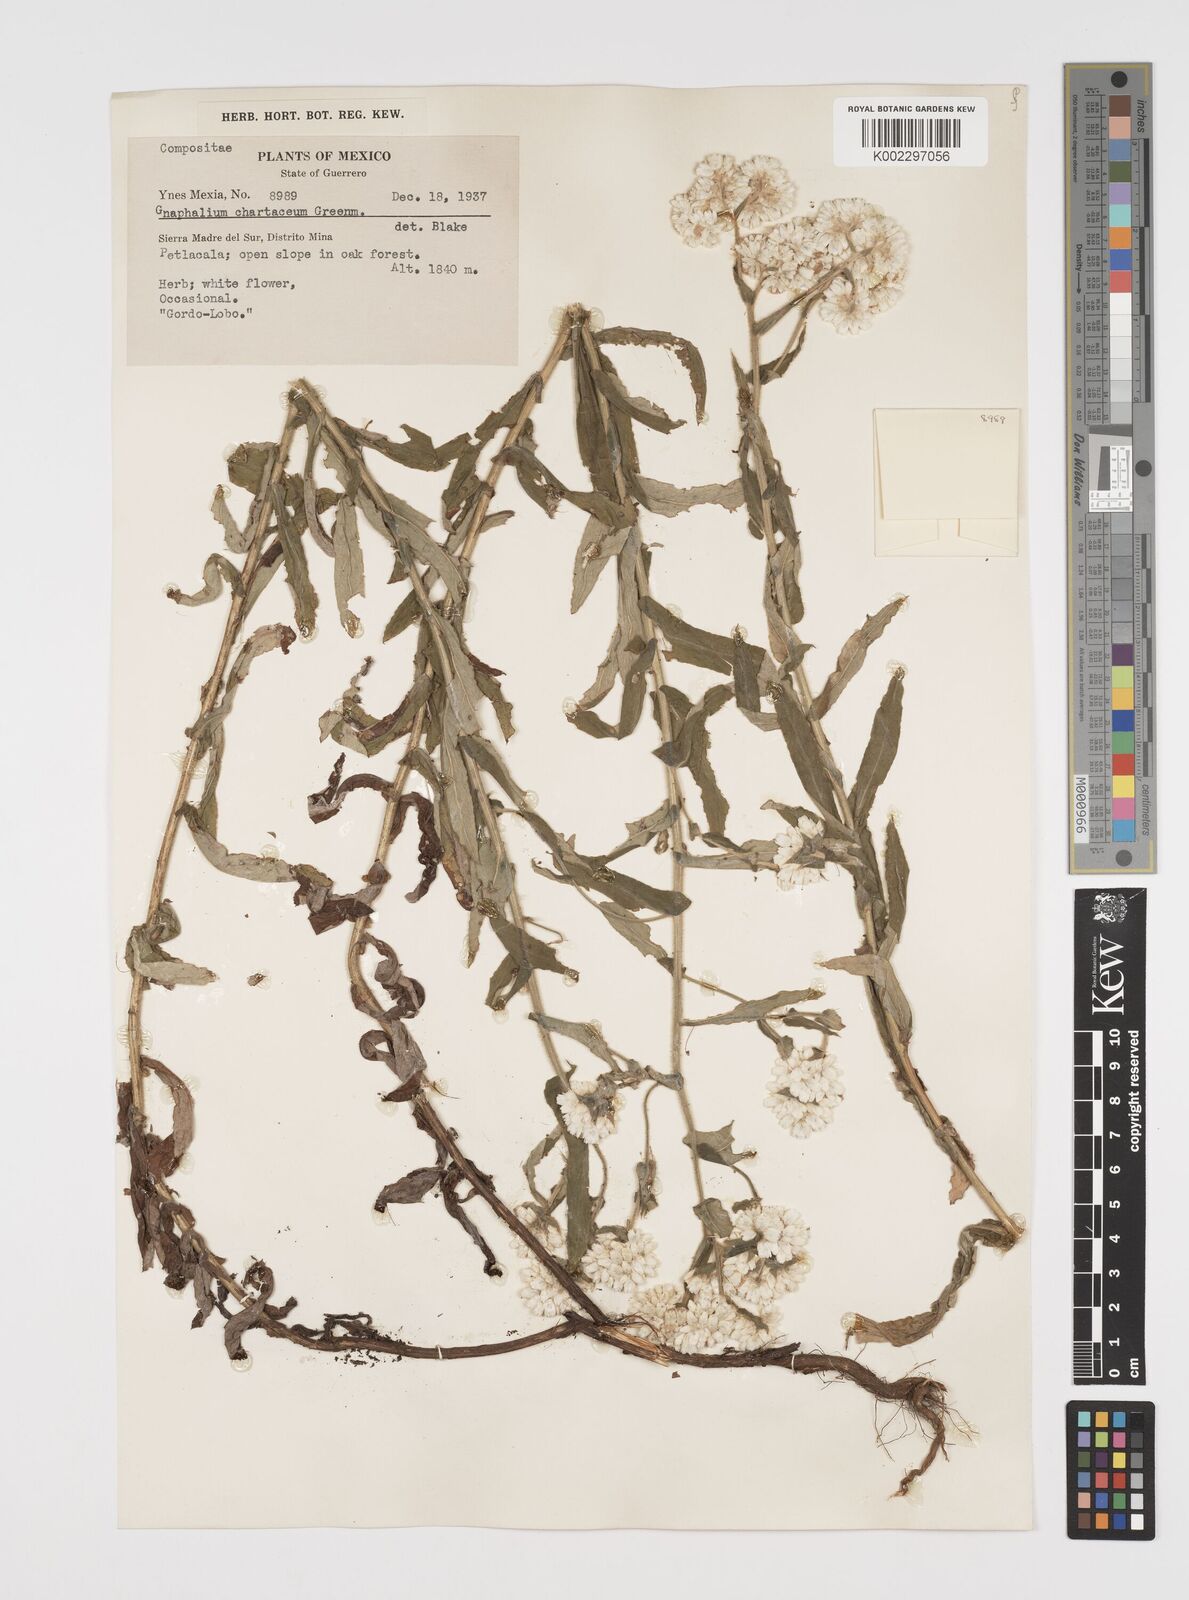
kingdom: Plantae
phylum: Tracheophyta
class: Magnoliopsida
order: Asterales
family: Asteraceae
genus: Pseudognaphalium
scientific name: Pseudognaphalium chartaceum
